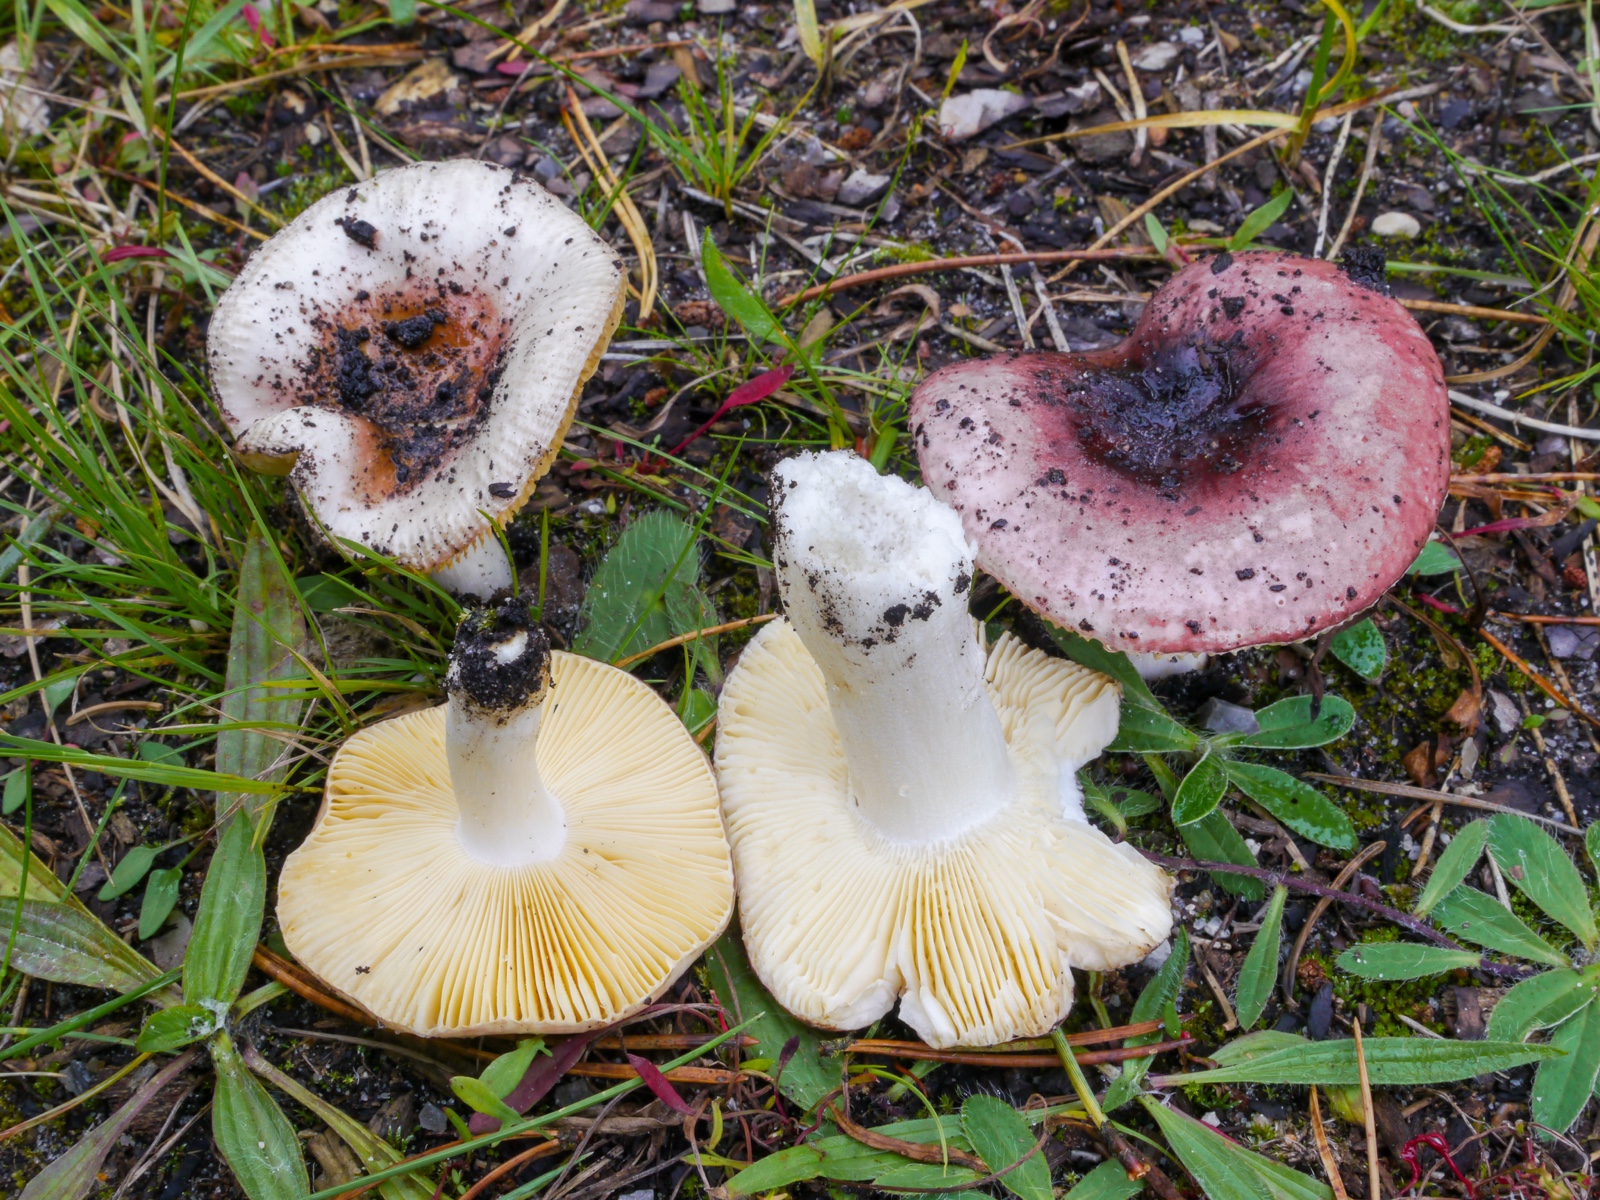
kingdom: Fungi
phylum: Basidiomycota
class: Agaricomycetes
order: Russulales
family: Russulaceae
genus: Russula
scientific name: Russula cessans
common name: fyrre-skørhat
